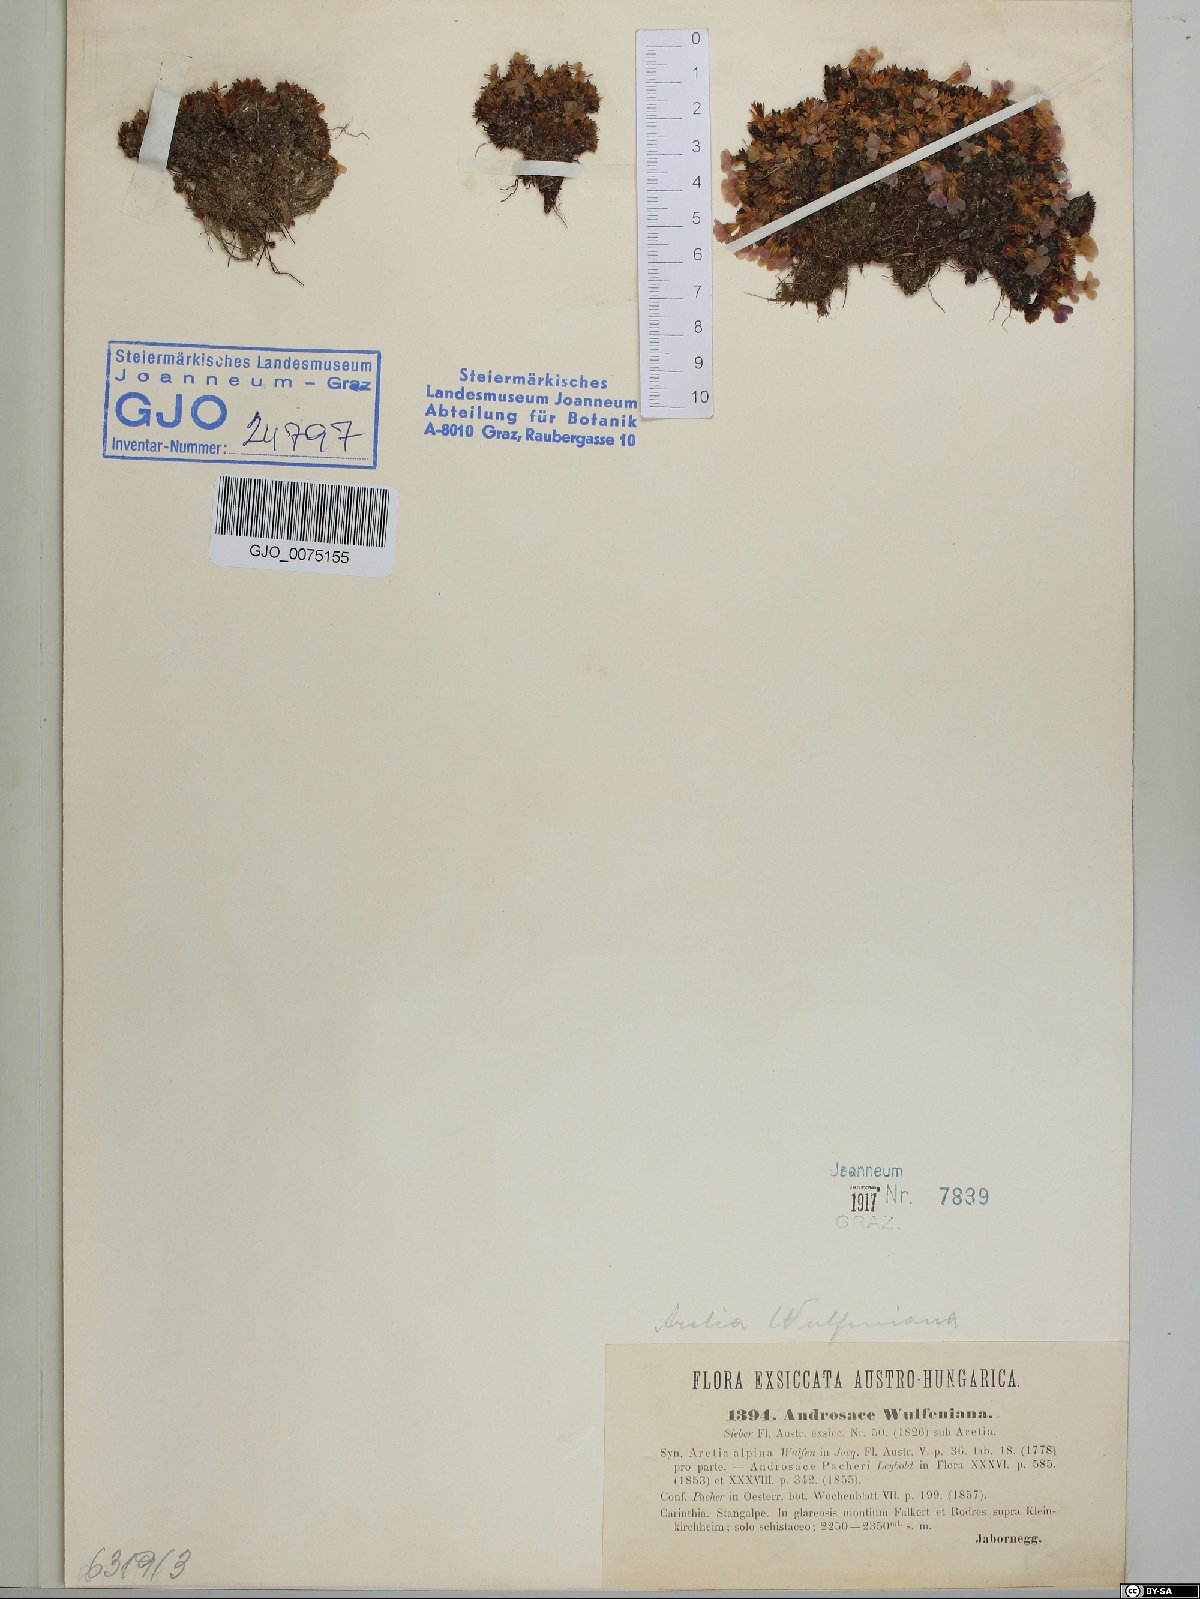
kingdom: Plantae
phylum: Tracheophyta
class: Magnoliopsida
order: Ericales
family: Primulaceae
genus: Androsace
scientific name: Androsace wulfeniana
